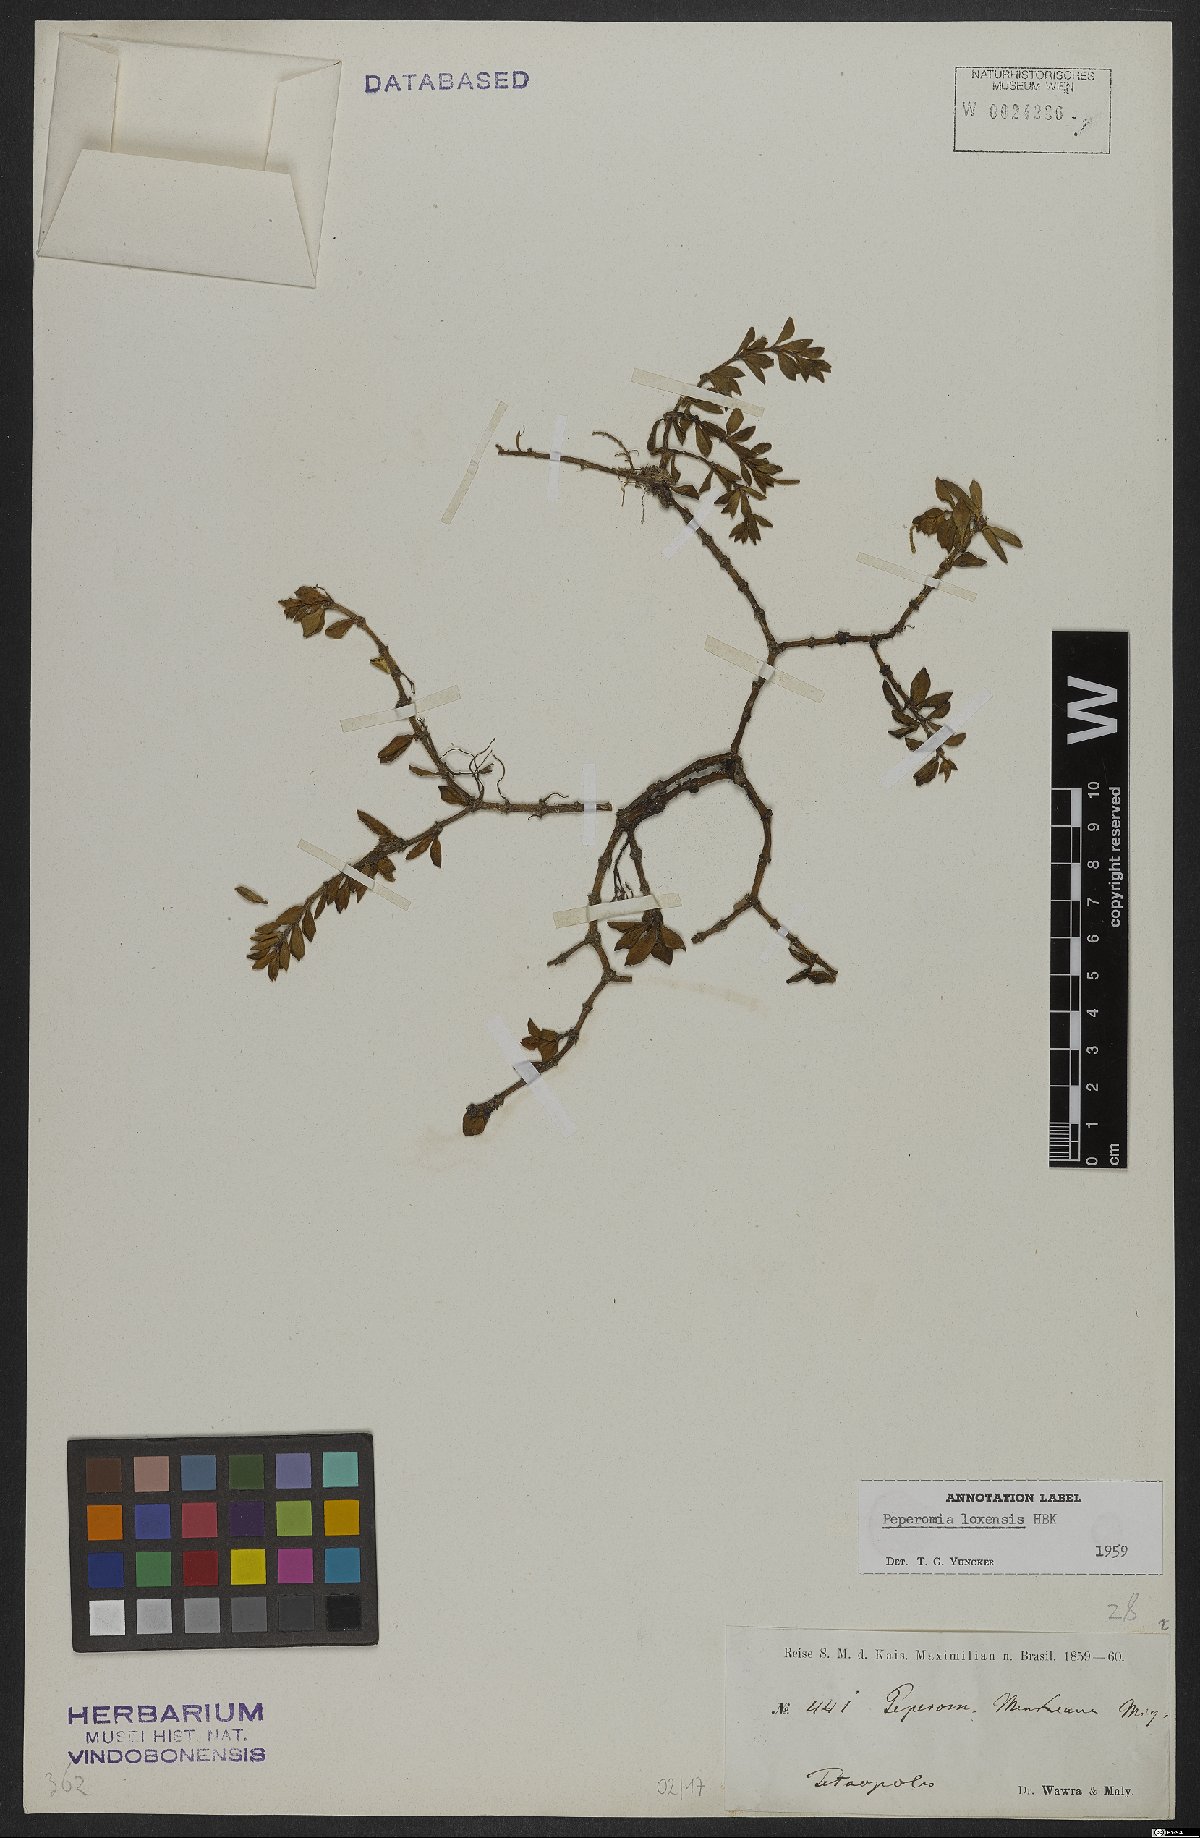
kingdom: Plantae
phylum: Tracheophyta
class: Liliopsida
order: Asparagales
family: Orchidaceae
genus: Epidendrum
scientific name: Epidendrum ramosum
